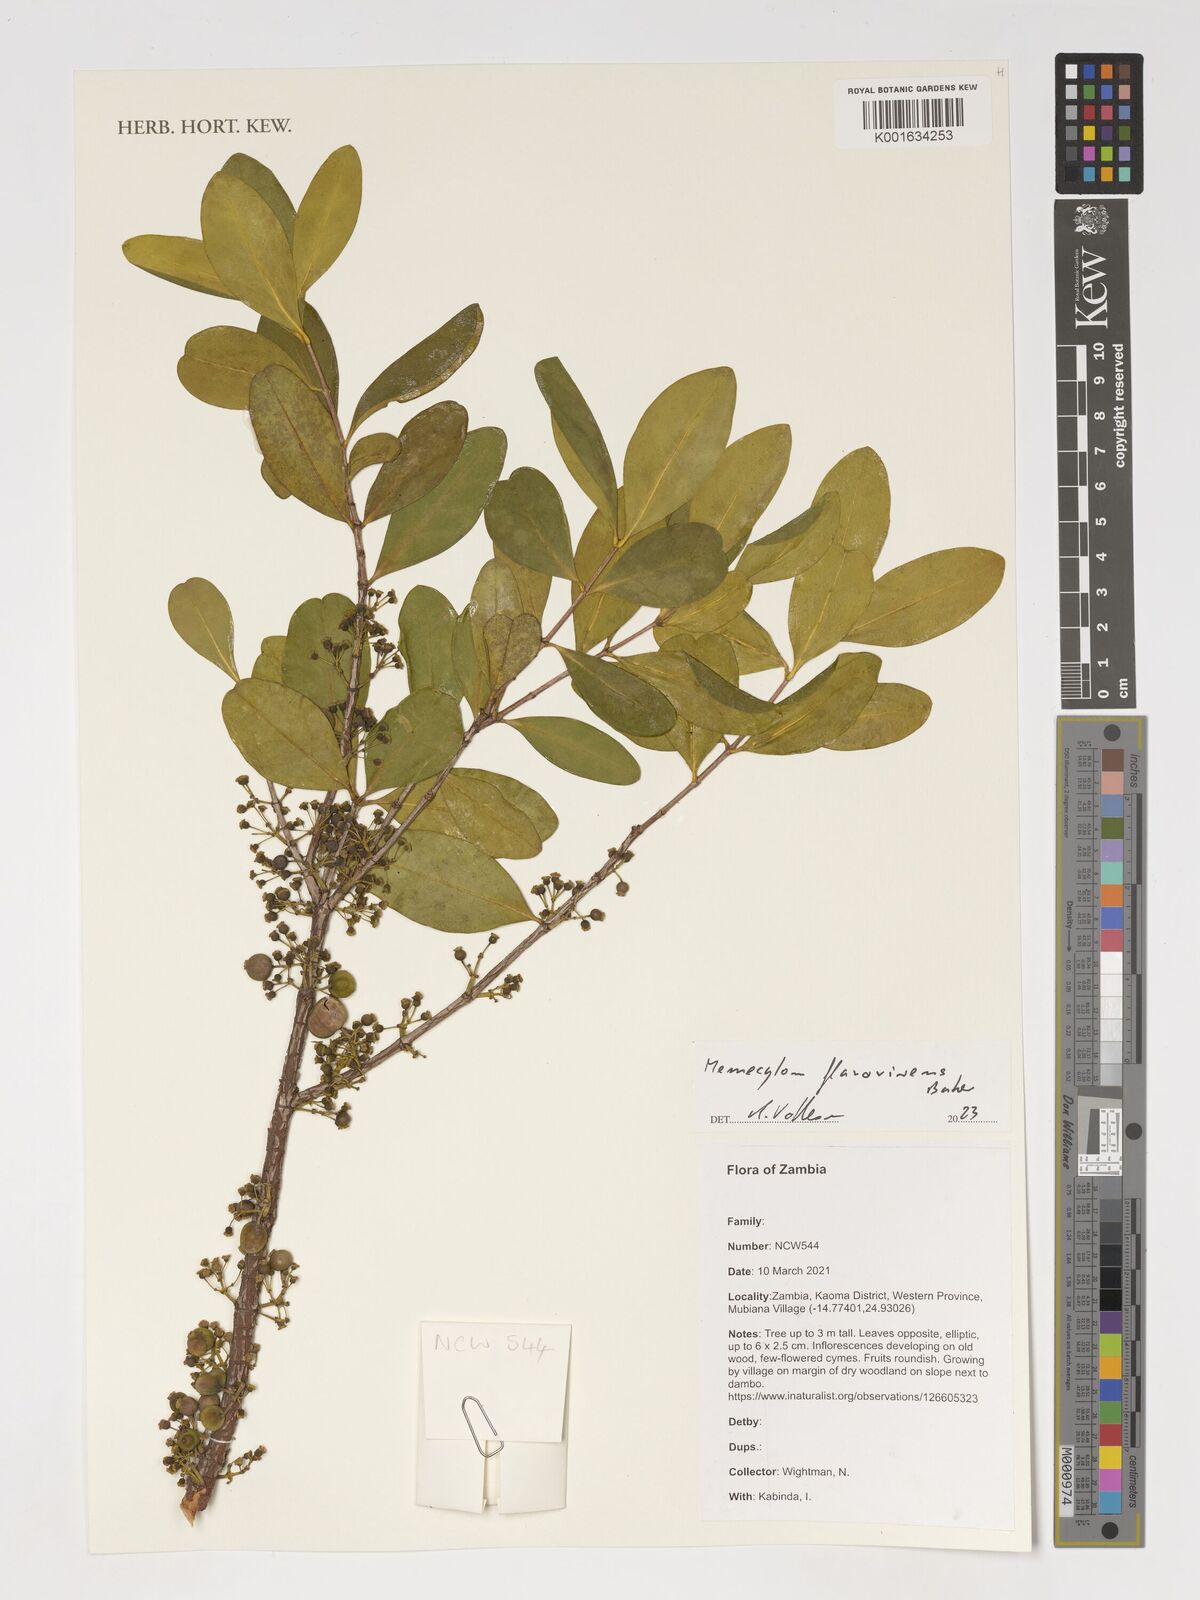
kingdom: Plantae
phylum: Tracheophyta
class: Magnoliopsida
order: Myrtales
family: Melastomataceae
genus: Memecylon
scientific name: Memecylon flavovirens
